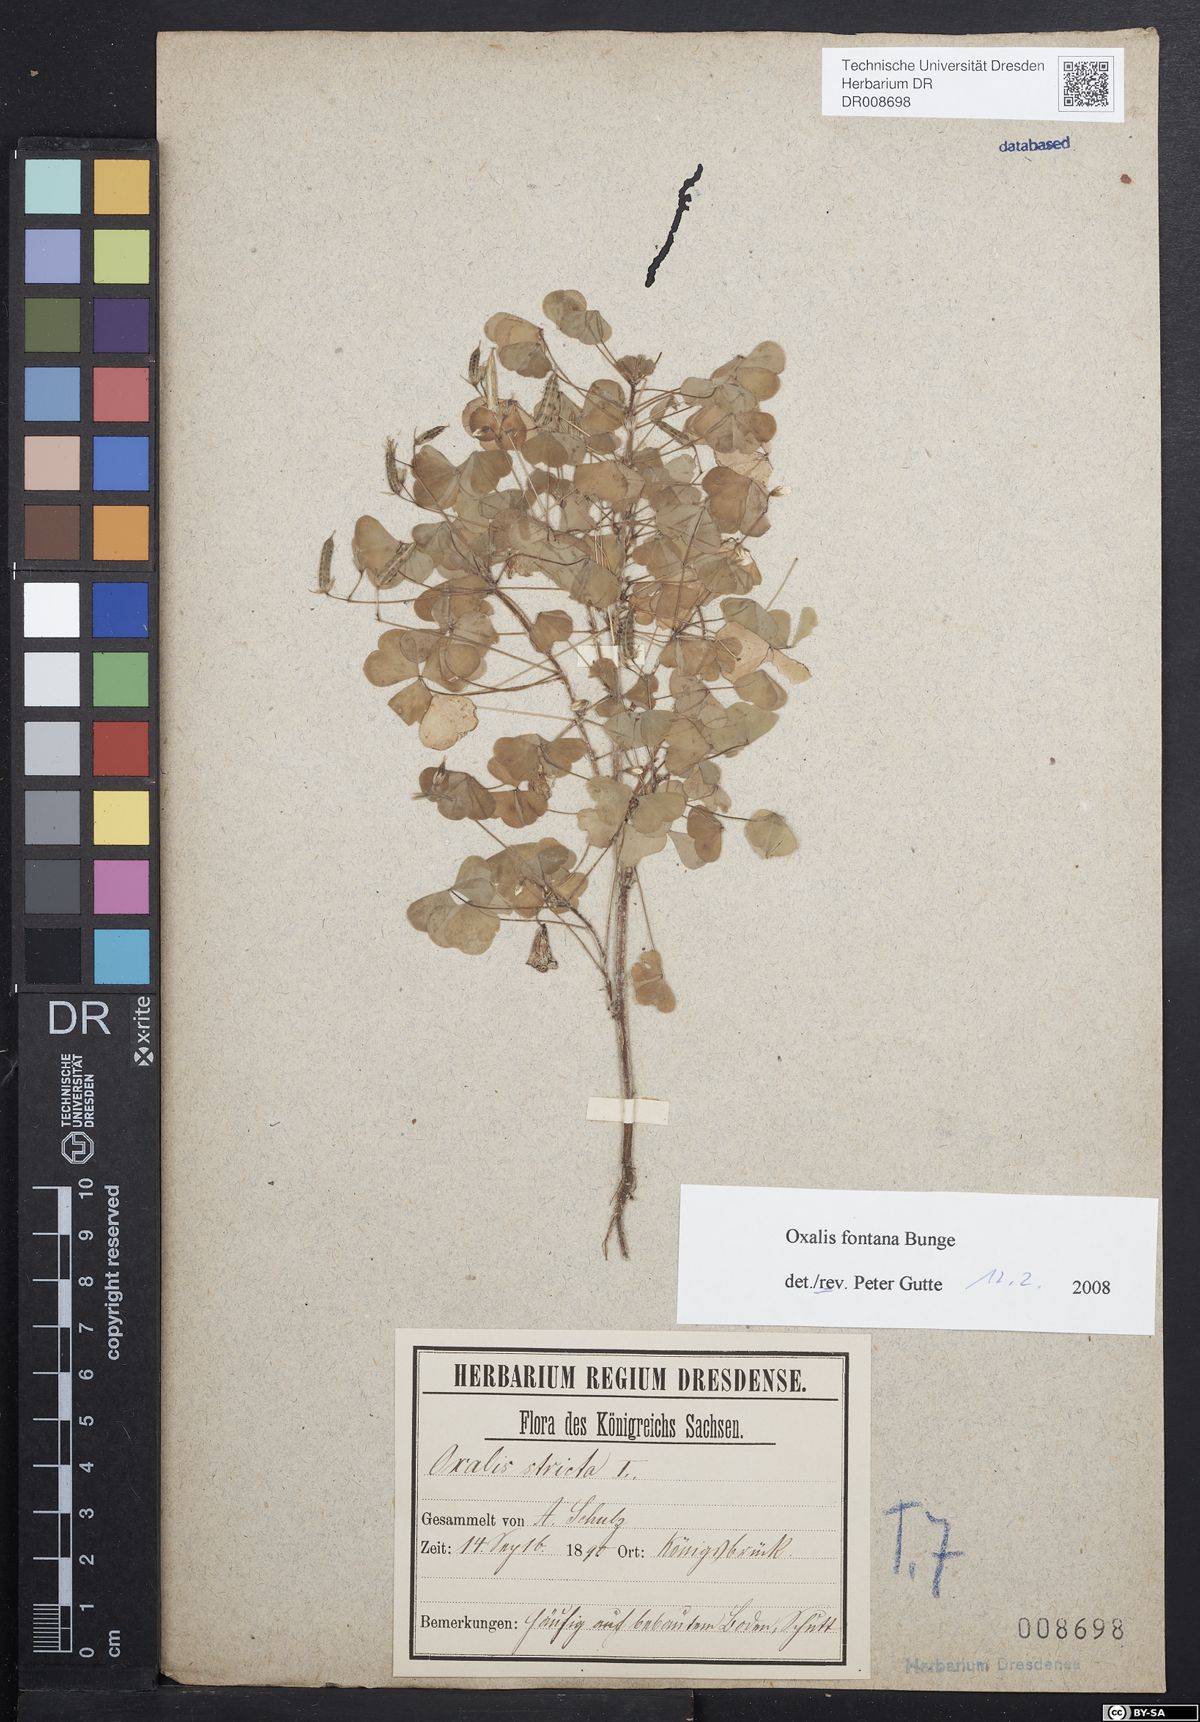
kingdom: Plantae
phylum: Tracheophyta
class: Magnoliopsida
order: Oxalidales
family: Oxalidaceae
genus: Oxalis
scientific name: Oxalis stricta
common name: Upright yellow-sorrel
